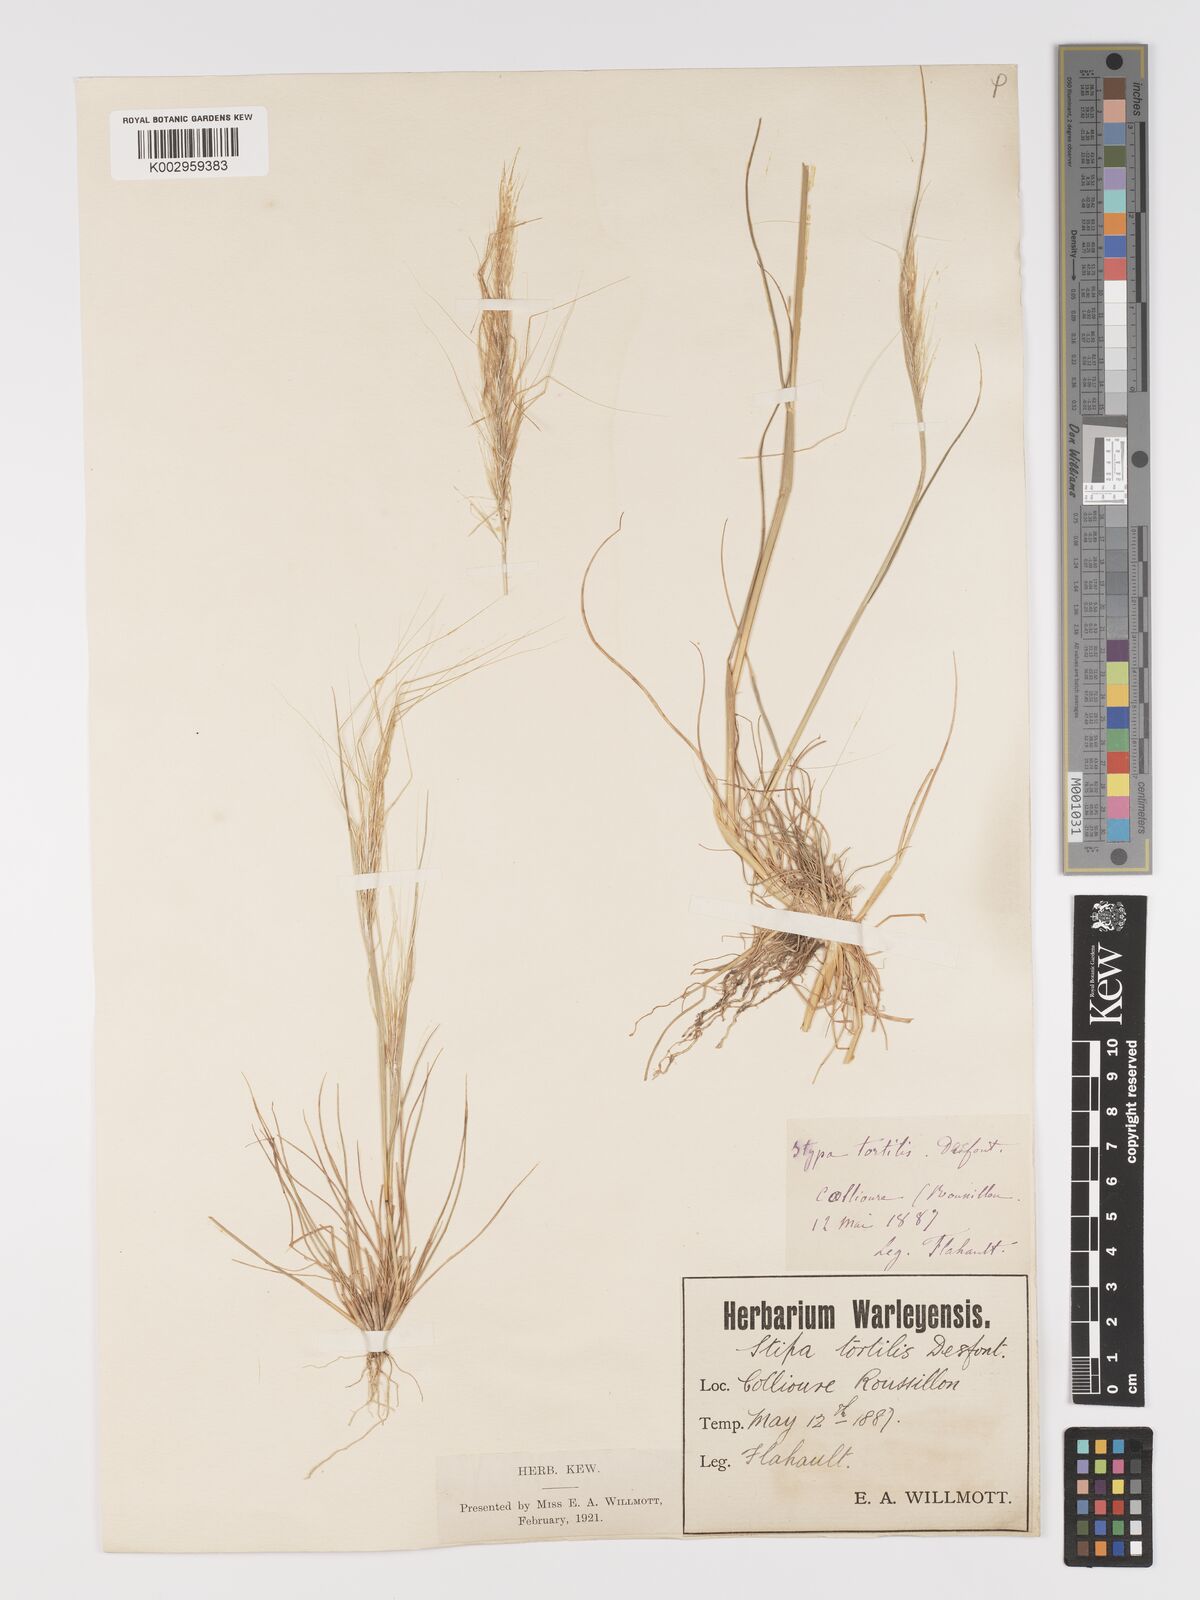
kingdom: Plantae
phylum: Tracheophyta
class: Liliopsida
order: Poales
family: Poaceae
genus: Stipellula
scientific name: Stipellula capensis
